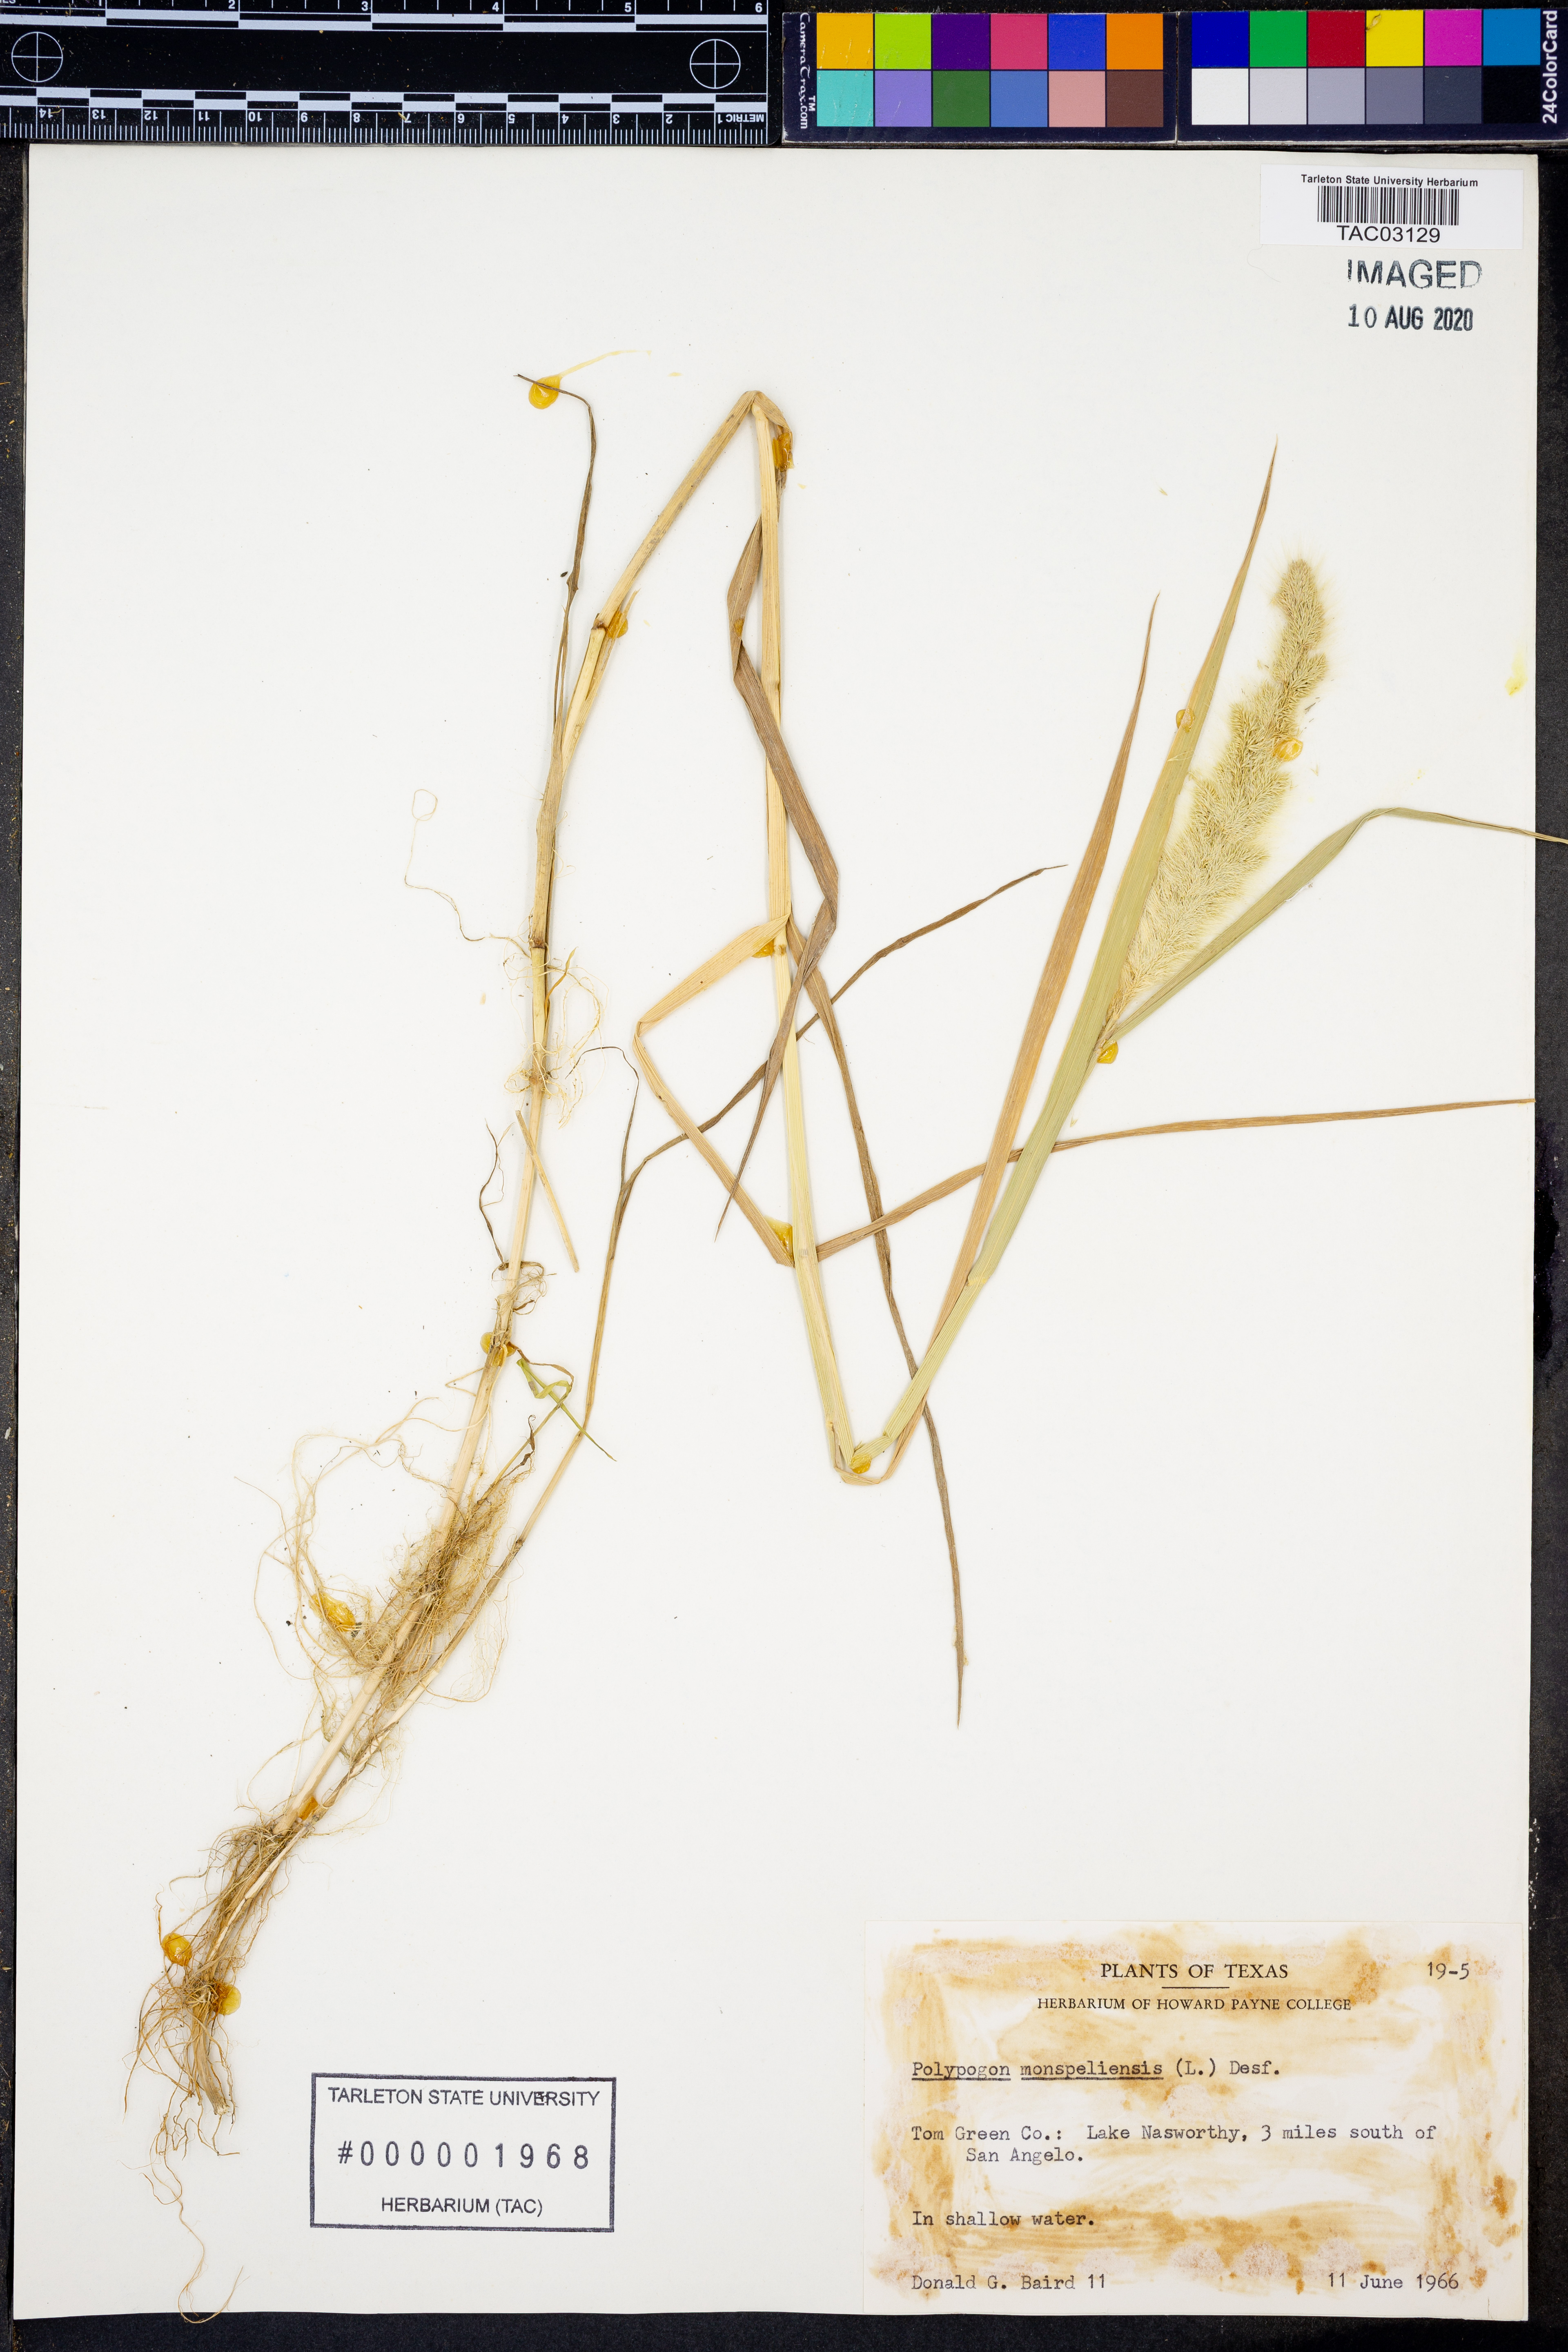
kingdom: Plantae
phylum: Tracheophyta
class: Liliopsida
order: Poales
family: Poaceae
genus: Polypogon
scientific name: Polypogon monspeliensis
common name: Annual rabbitsfoot grass
